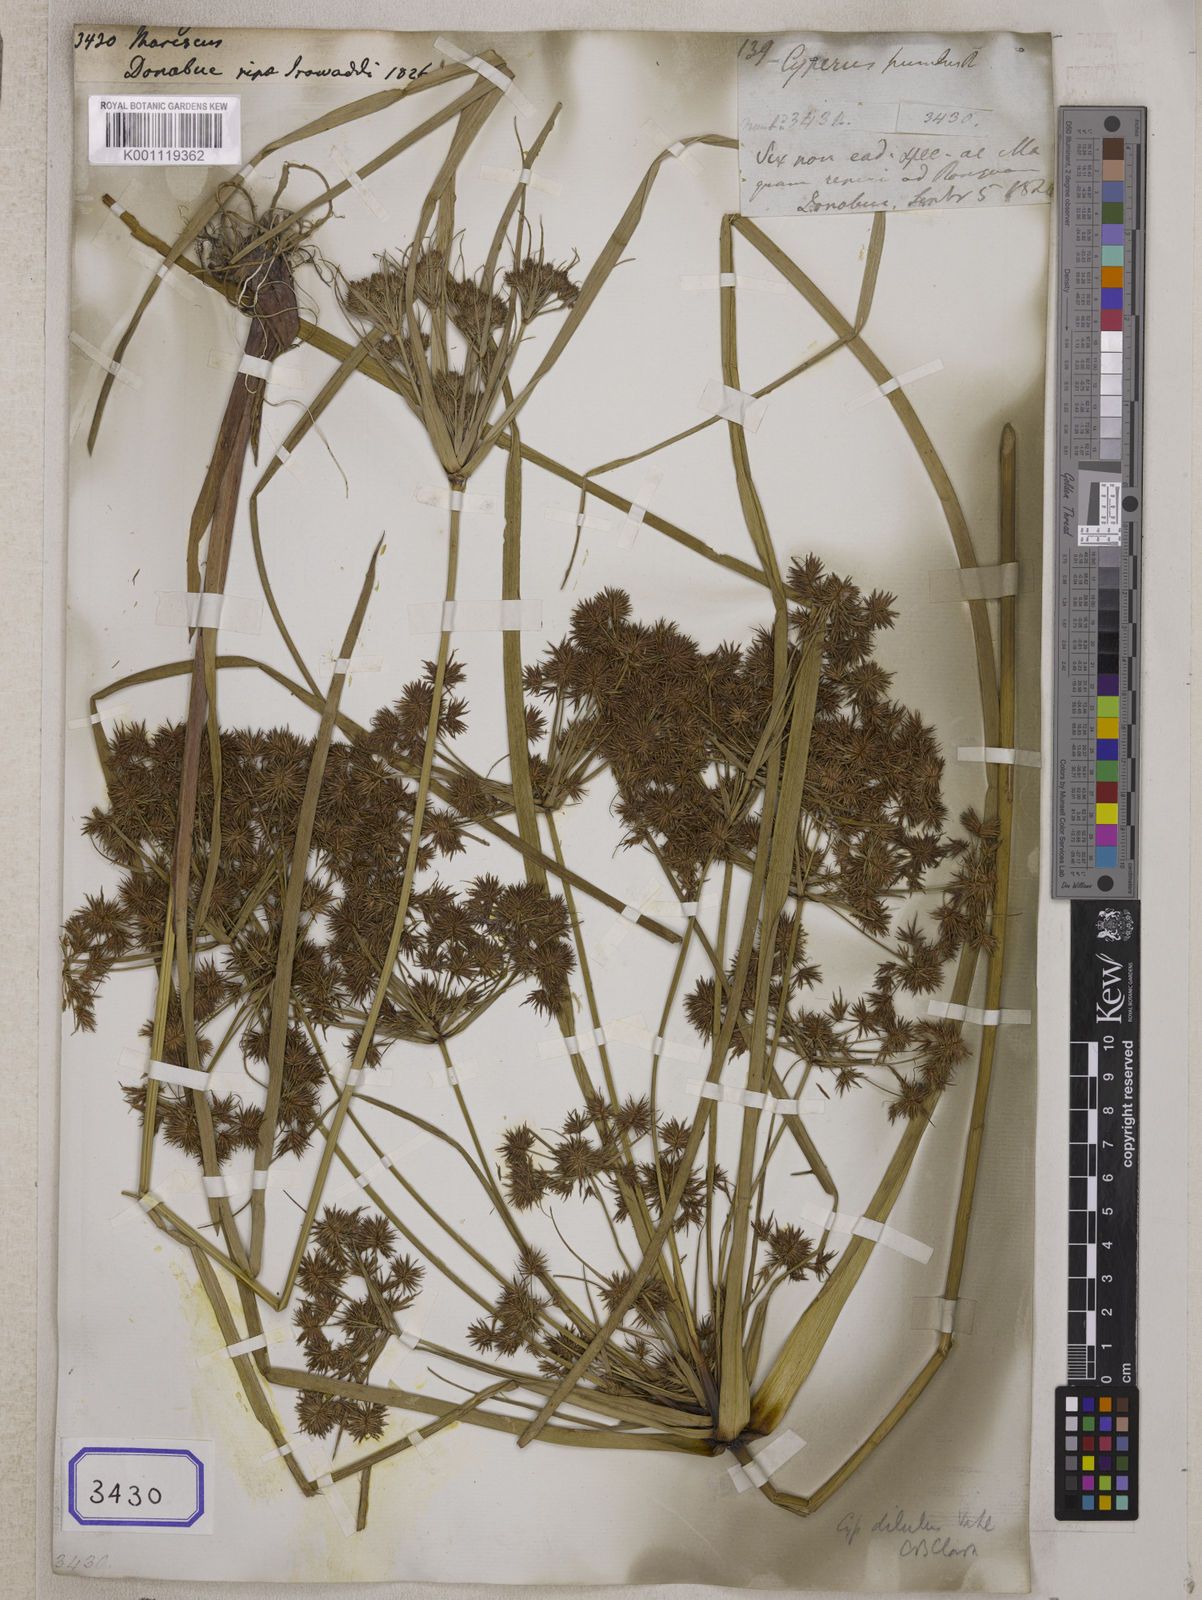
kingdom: Plantae
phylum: Tracheophyta
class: Liliopsida
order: Poales
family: Cyperaceae
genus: Mariscus
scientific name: Mariscus
